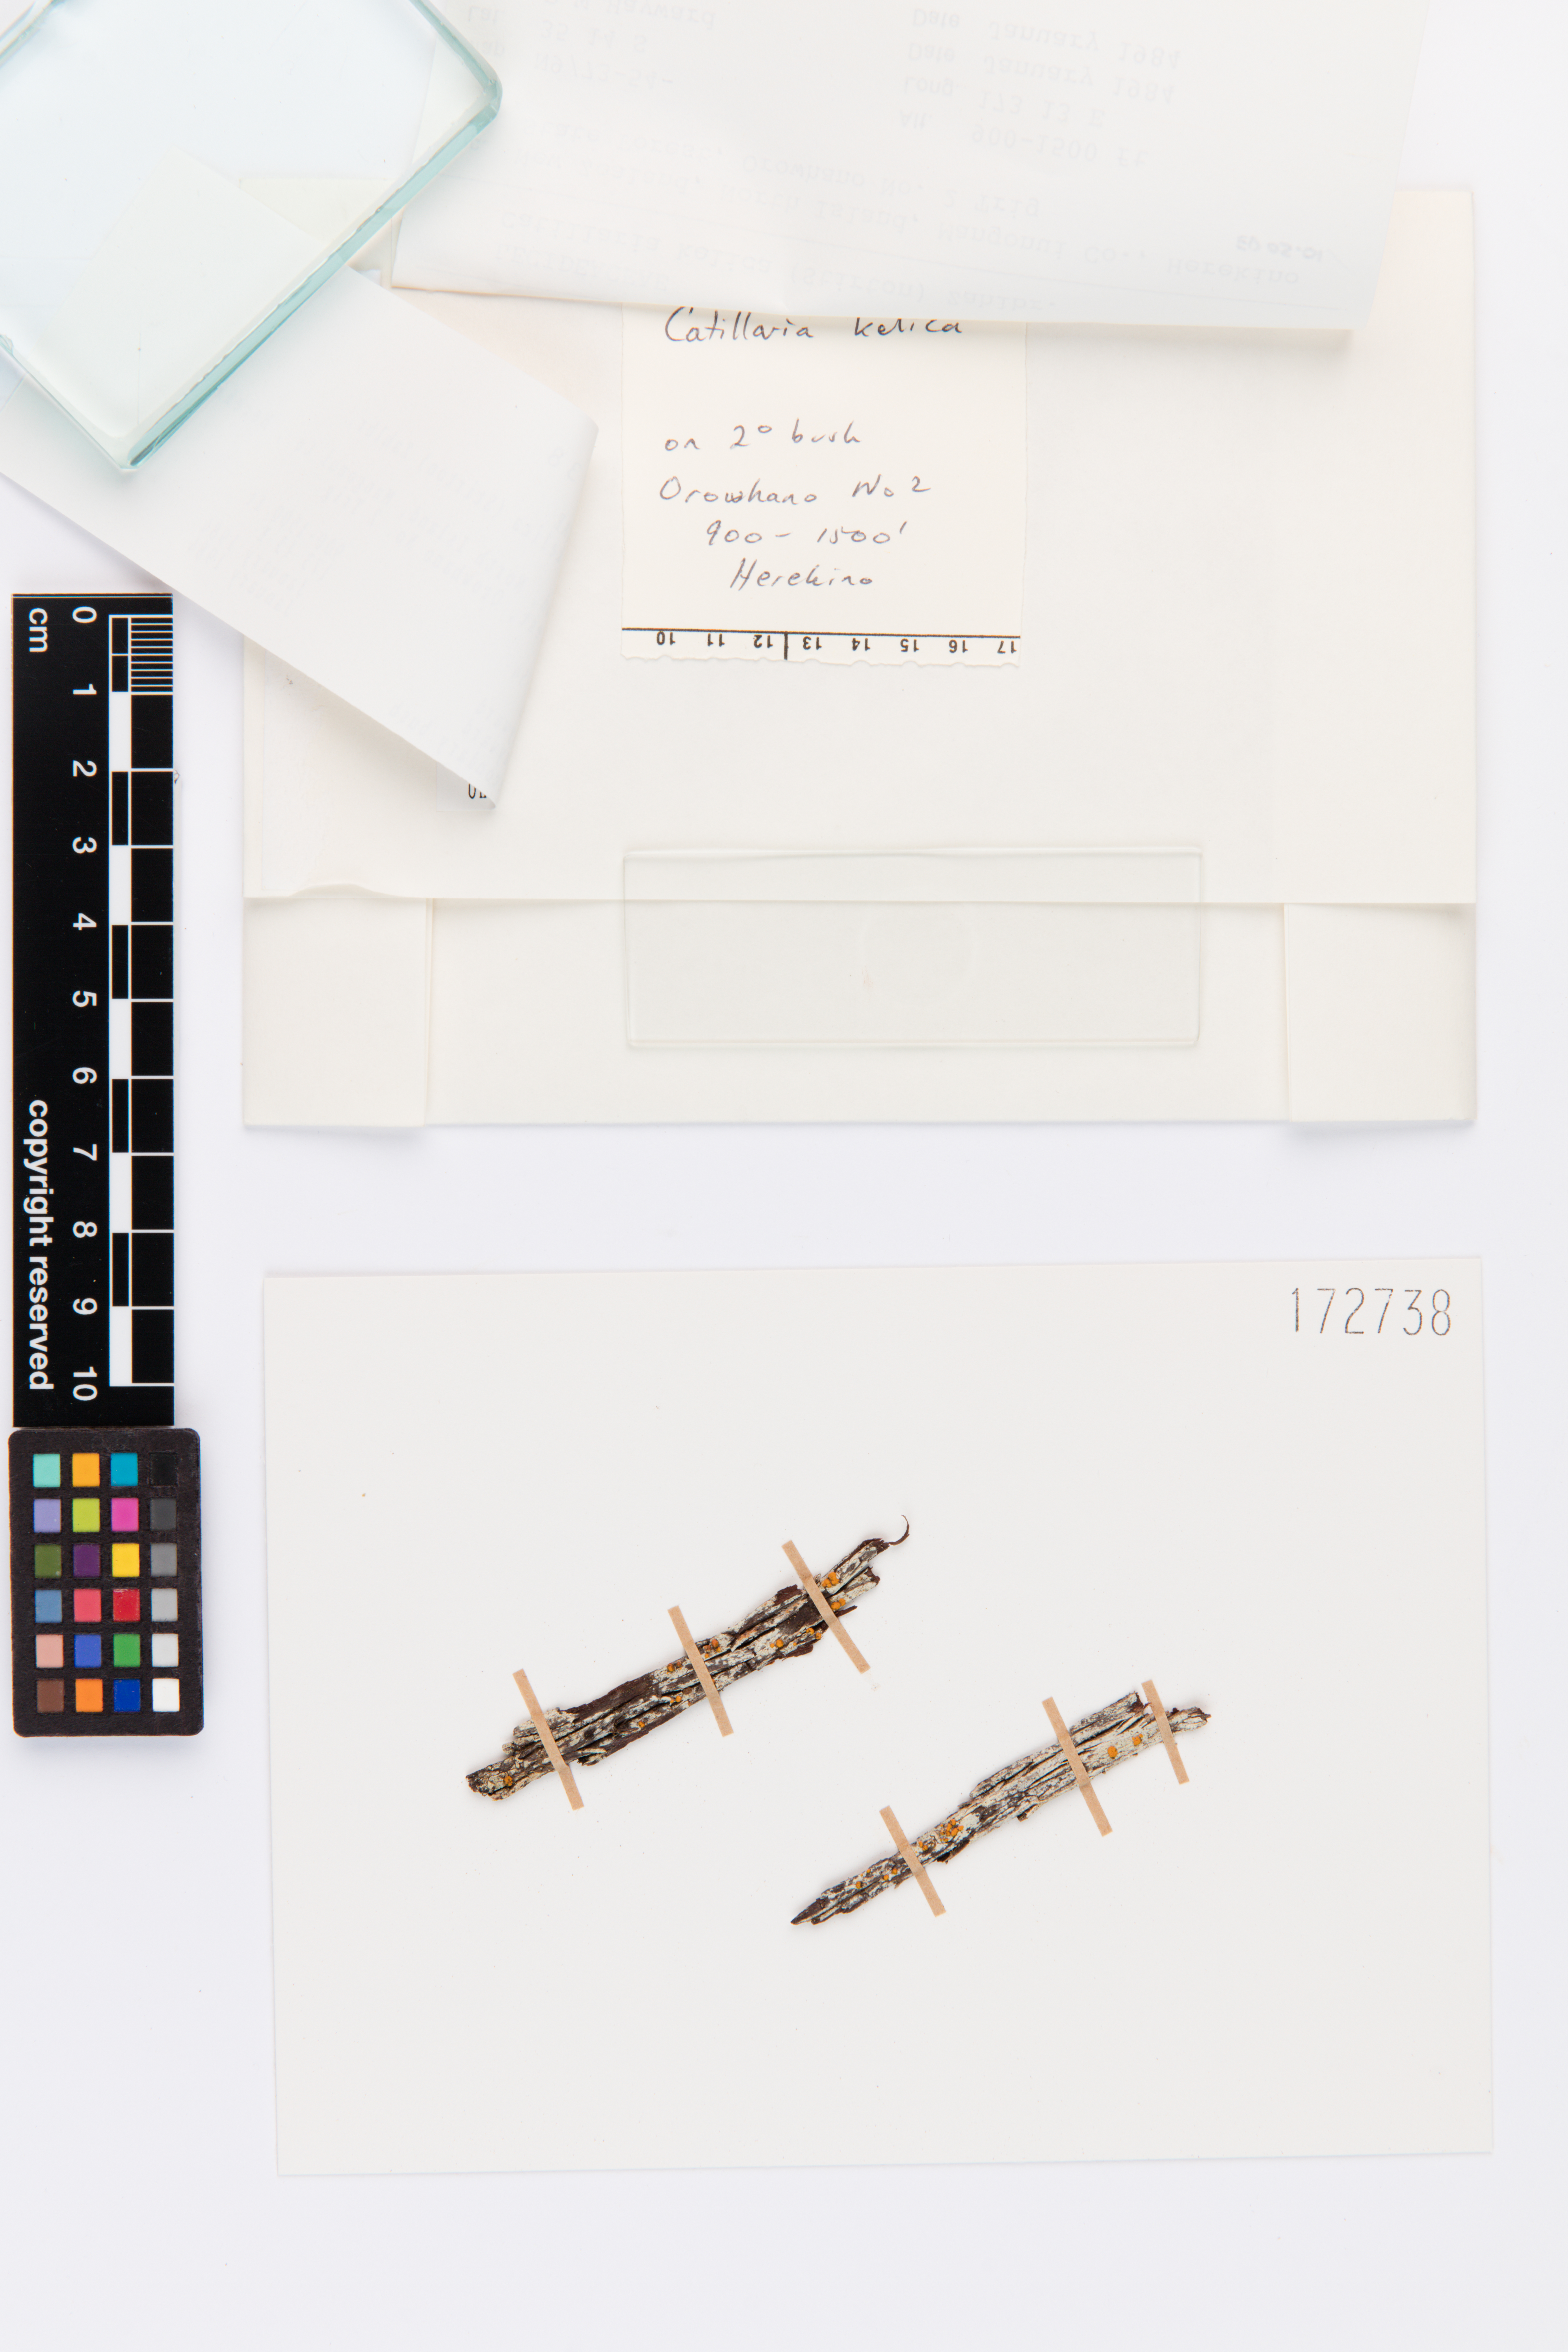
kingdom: Fungi
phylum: Ascomycota
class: Lecanoromycetes
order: Lecanorales
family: Ramalinaceae
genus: Stirtoniella
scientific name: Stirtoniella kelica
